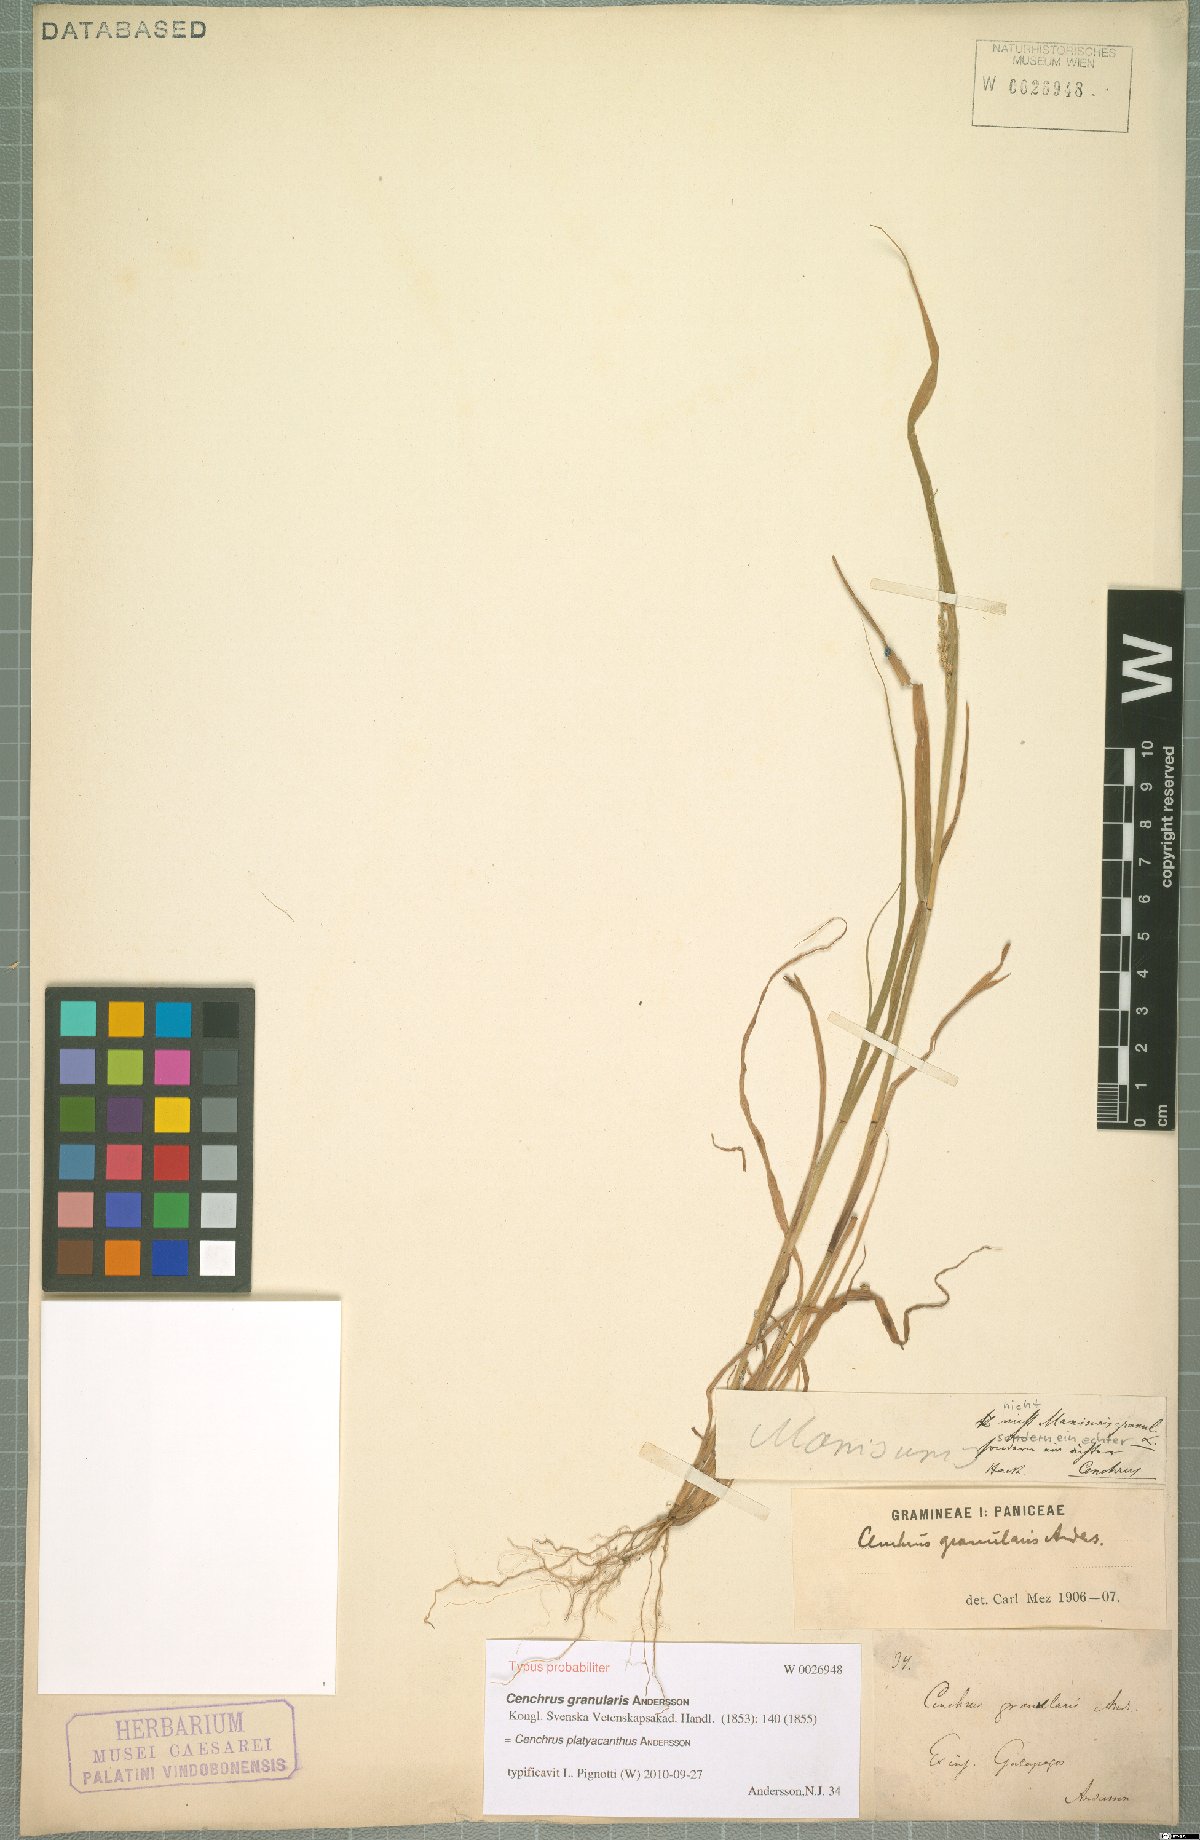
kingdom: Plantae
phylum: Tracheophyta
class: Liliopsida
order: Poales
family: Poaceae
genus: Cenchrus
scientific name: Cenchrus platyacanthus
